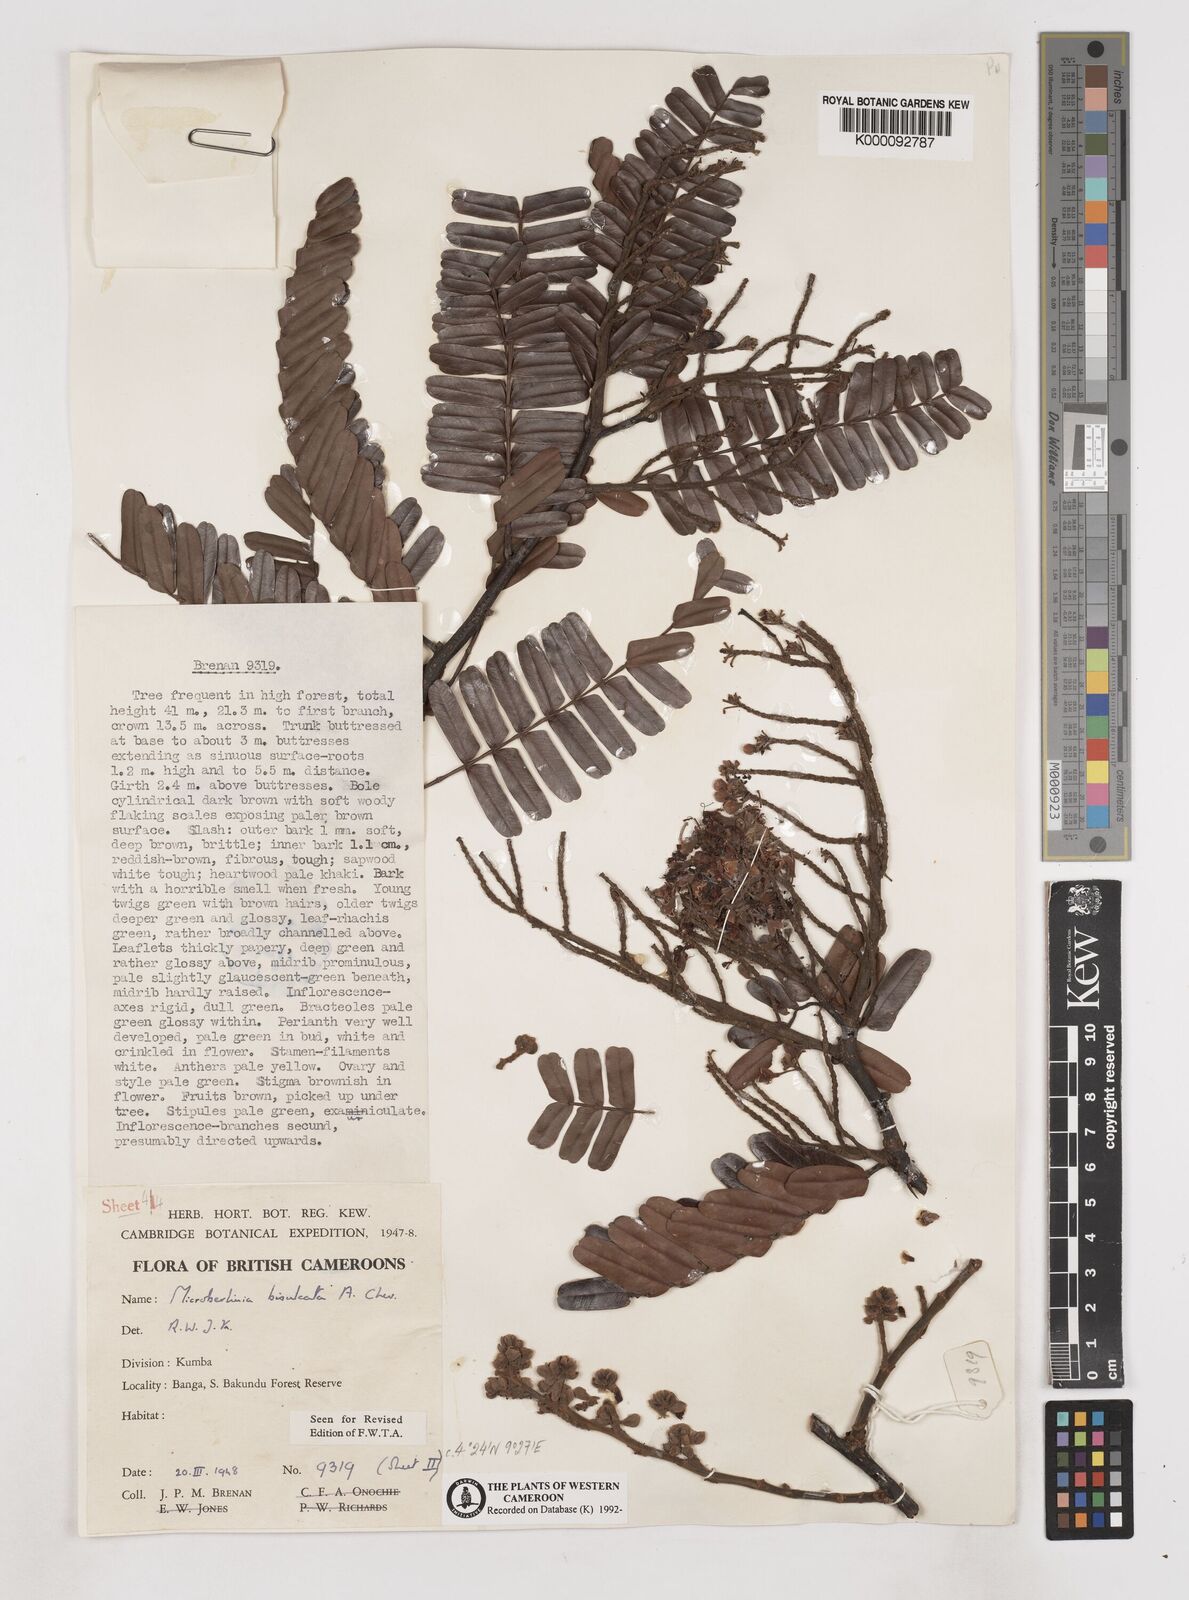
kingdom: Plantae
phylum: Tracheophyta
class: Magnoliopsida
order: Fabales
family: Fabaceae
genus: Microberlinia
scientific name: Microberlinia bisulcata
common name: Zingana
